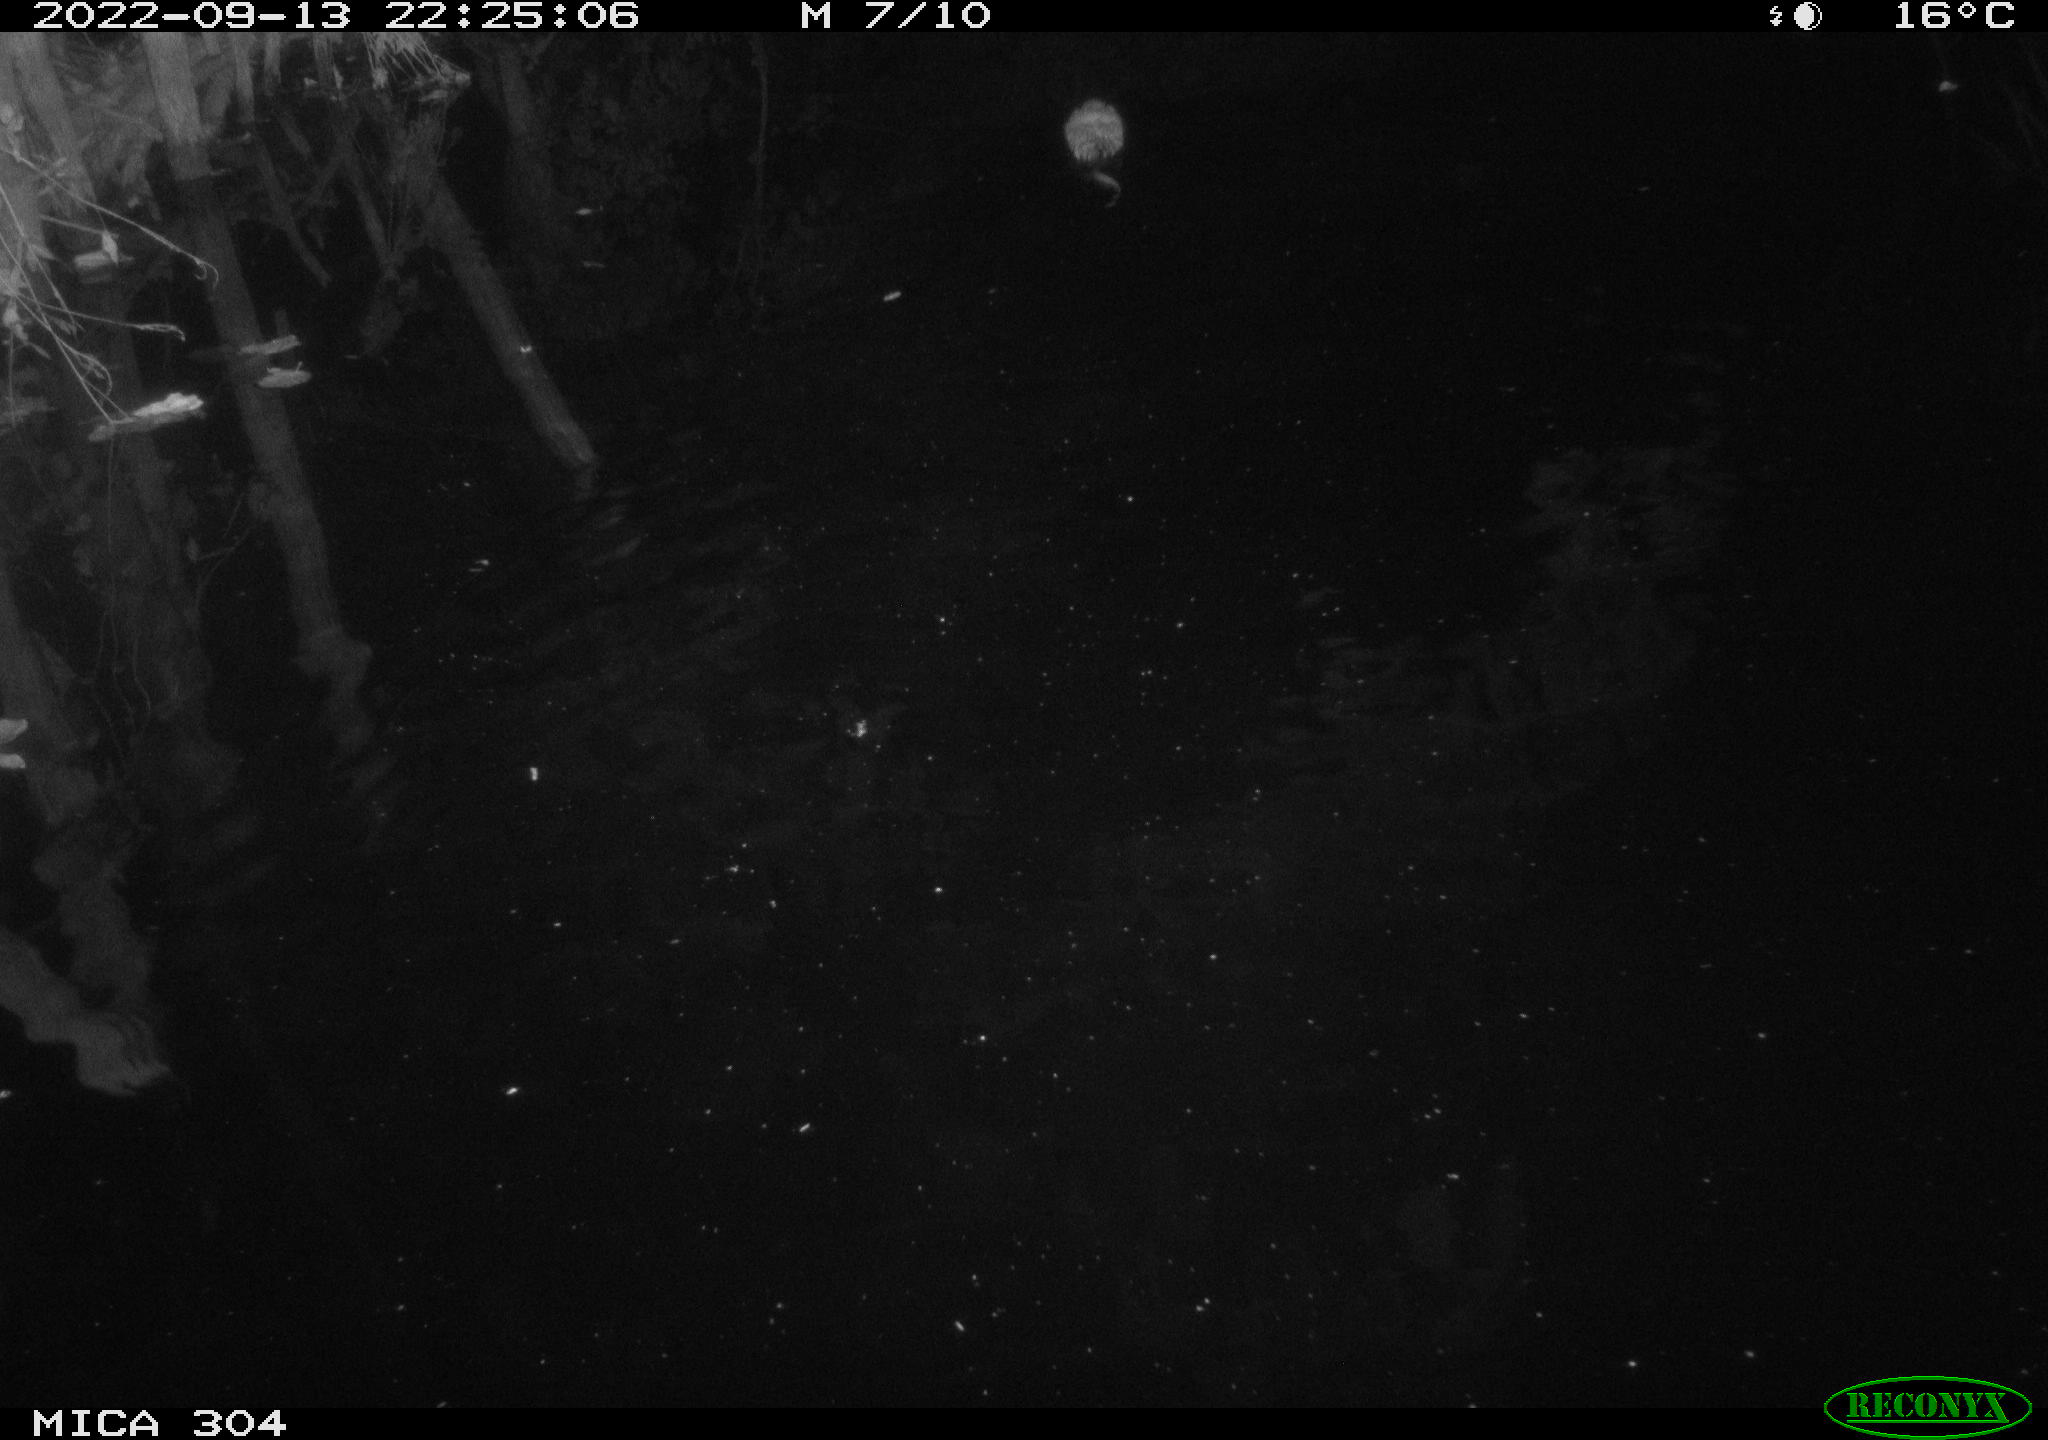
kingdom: Animalia
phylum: Chordata
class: Mammalia
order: Rodentia
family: Cricetidae
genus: Ondatra
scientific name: Ondatra zibethicus
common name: Muskrat
